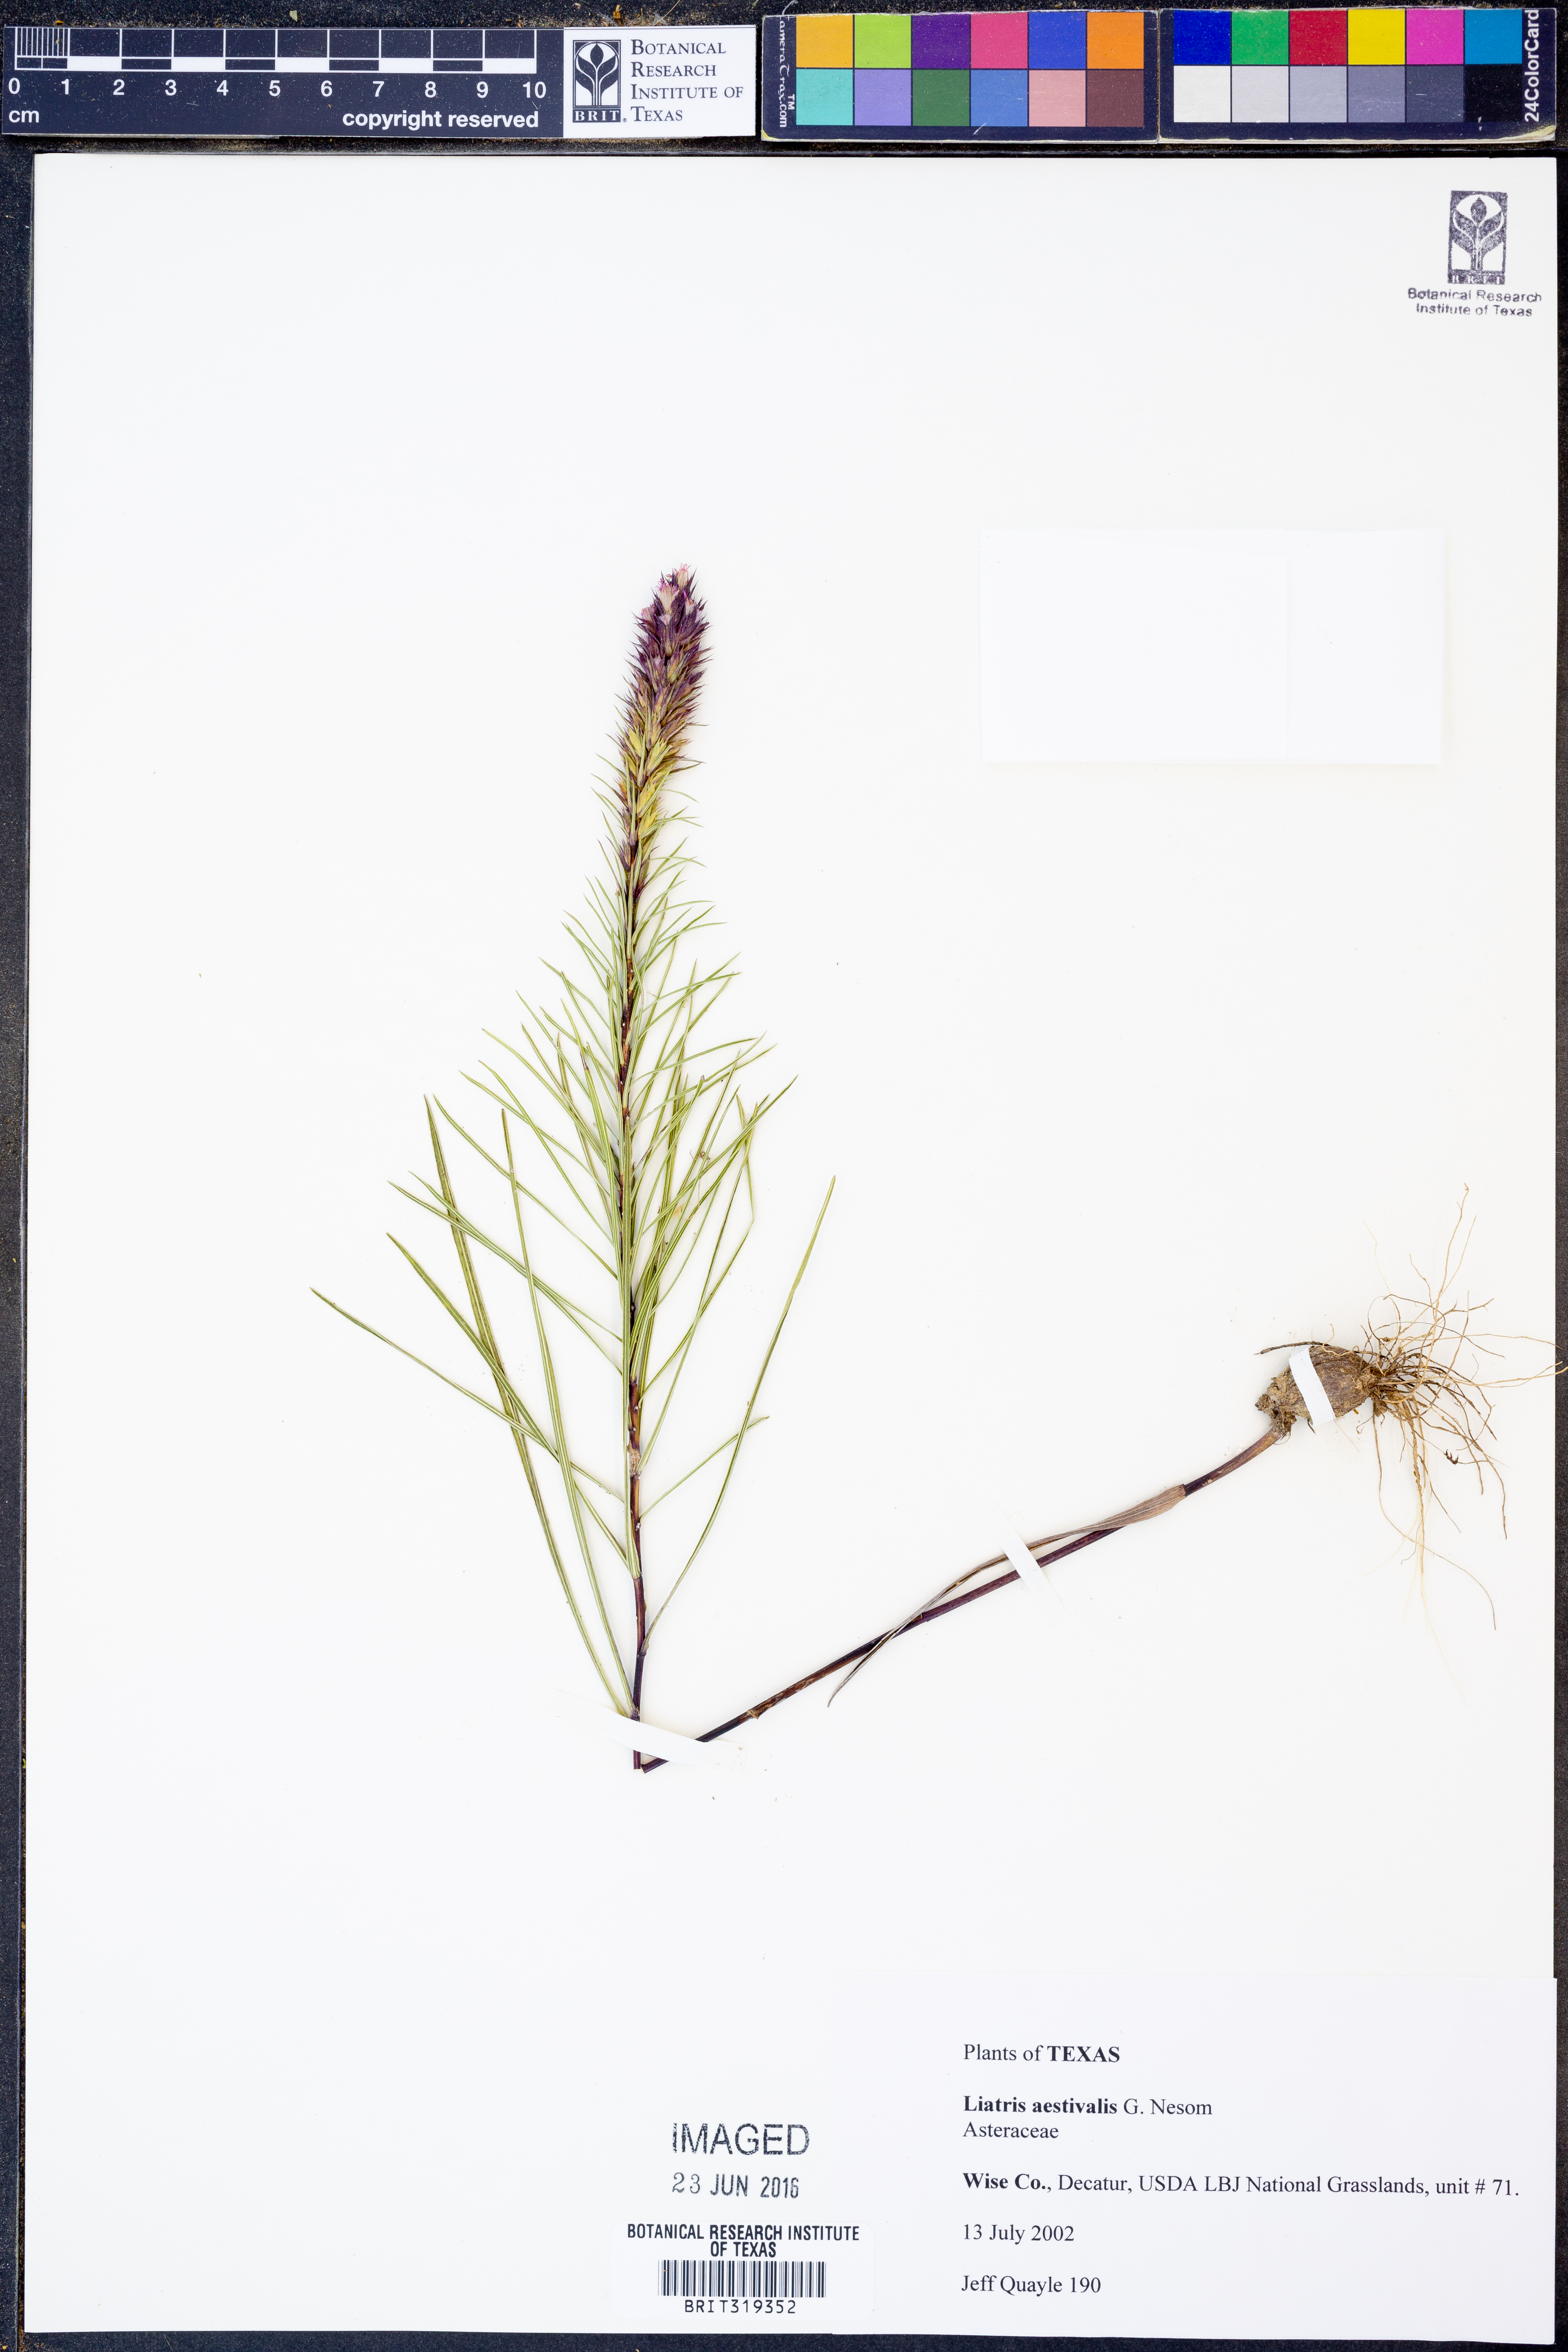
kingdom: Plantae
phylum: Tracheophyta
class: Magnoliopsida
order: Asterales
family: Asteraceae
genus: Liatris
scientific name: Liatris aestivalis
